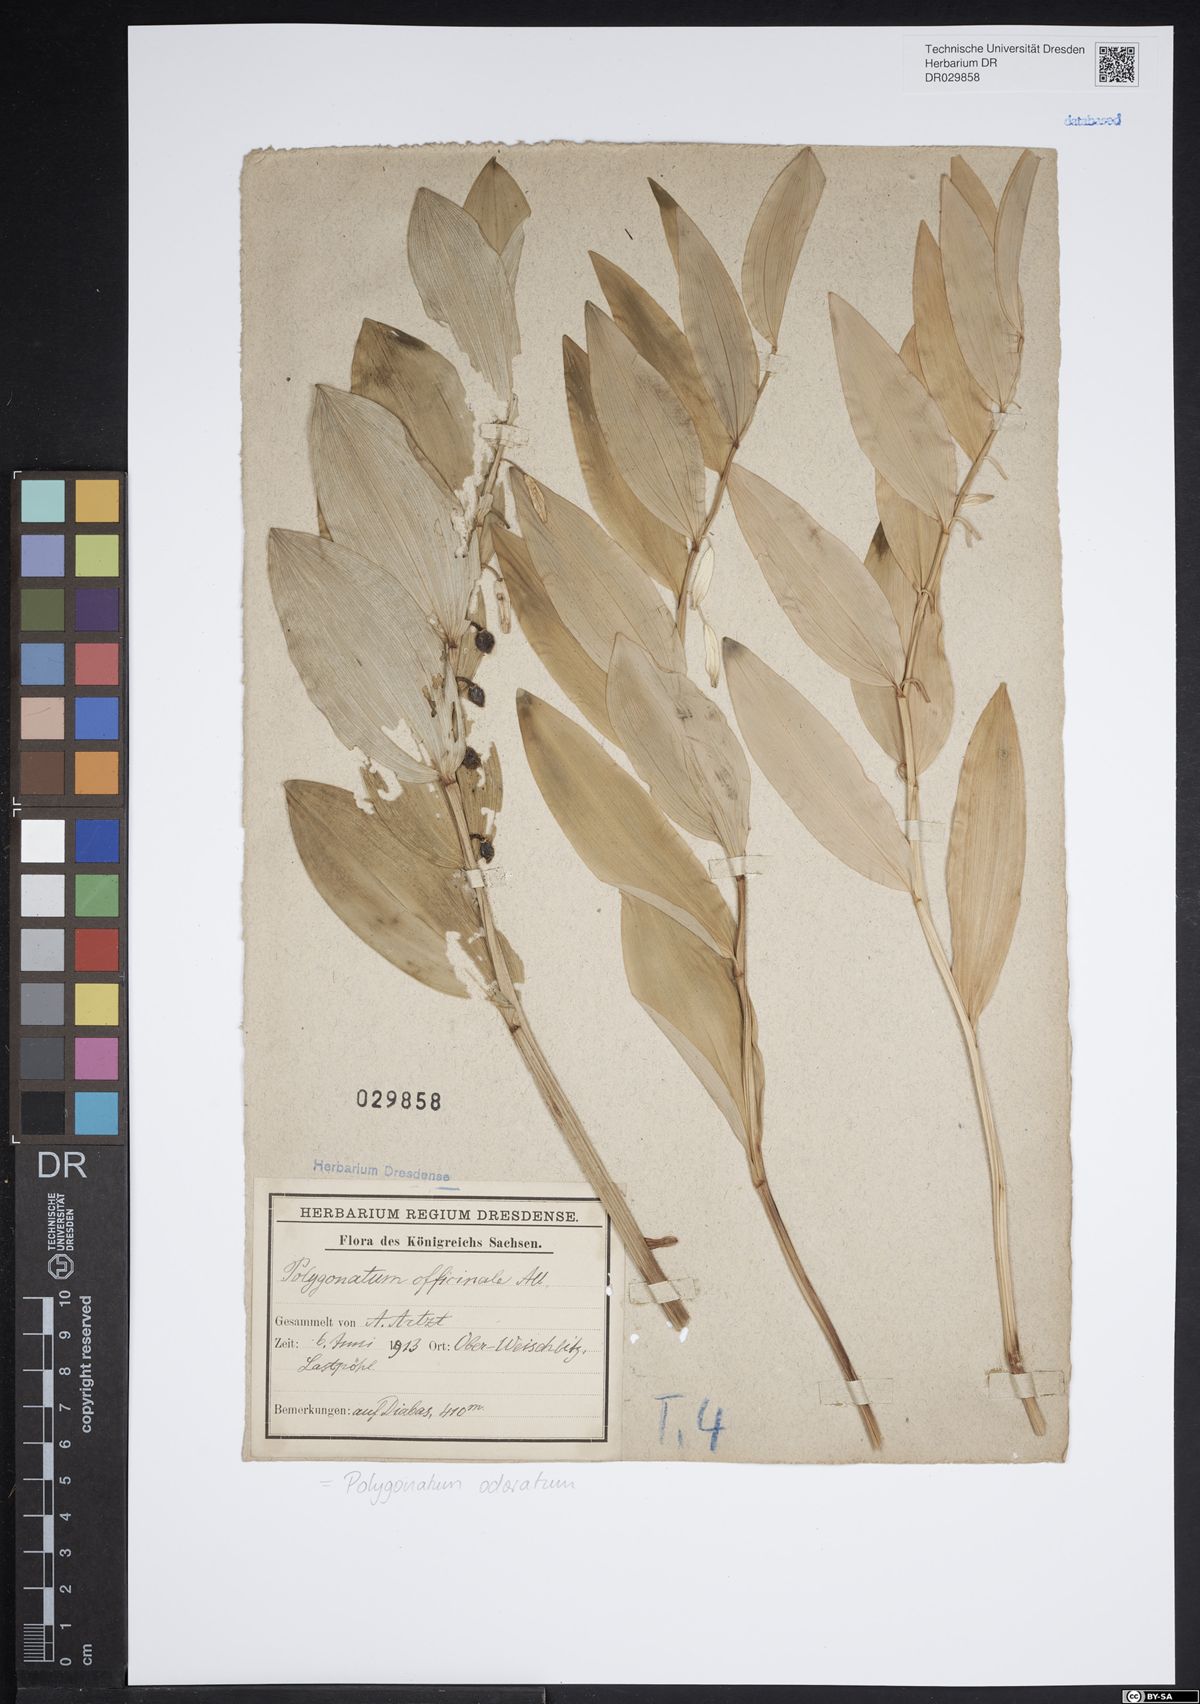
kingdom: Plantae
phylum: Tracheophyta
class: Liliopsida
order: Asparagales
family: Asparagaceae
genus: Polygonatum
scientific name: Polygonatum odoratum
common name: Angular solomon's-seal
